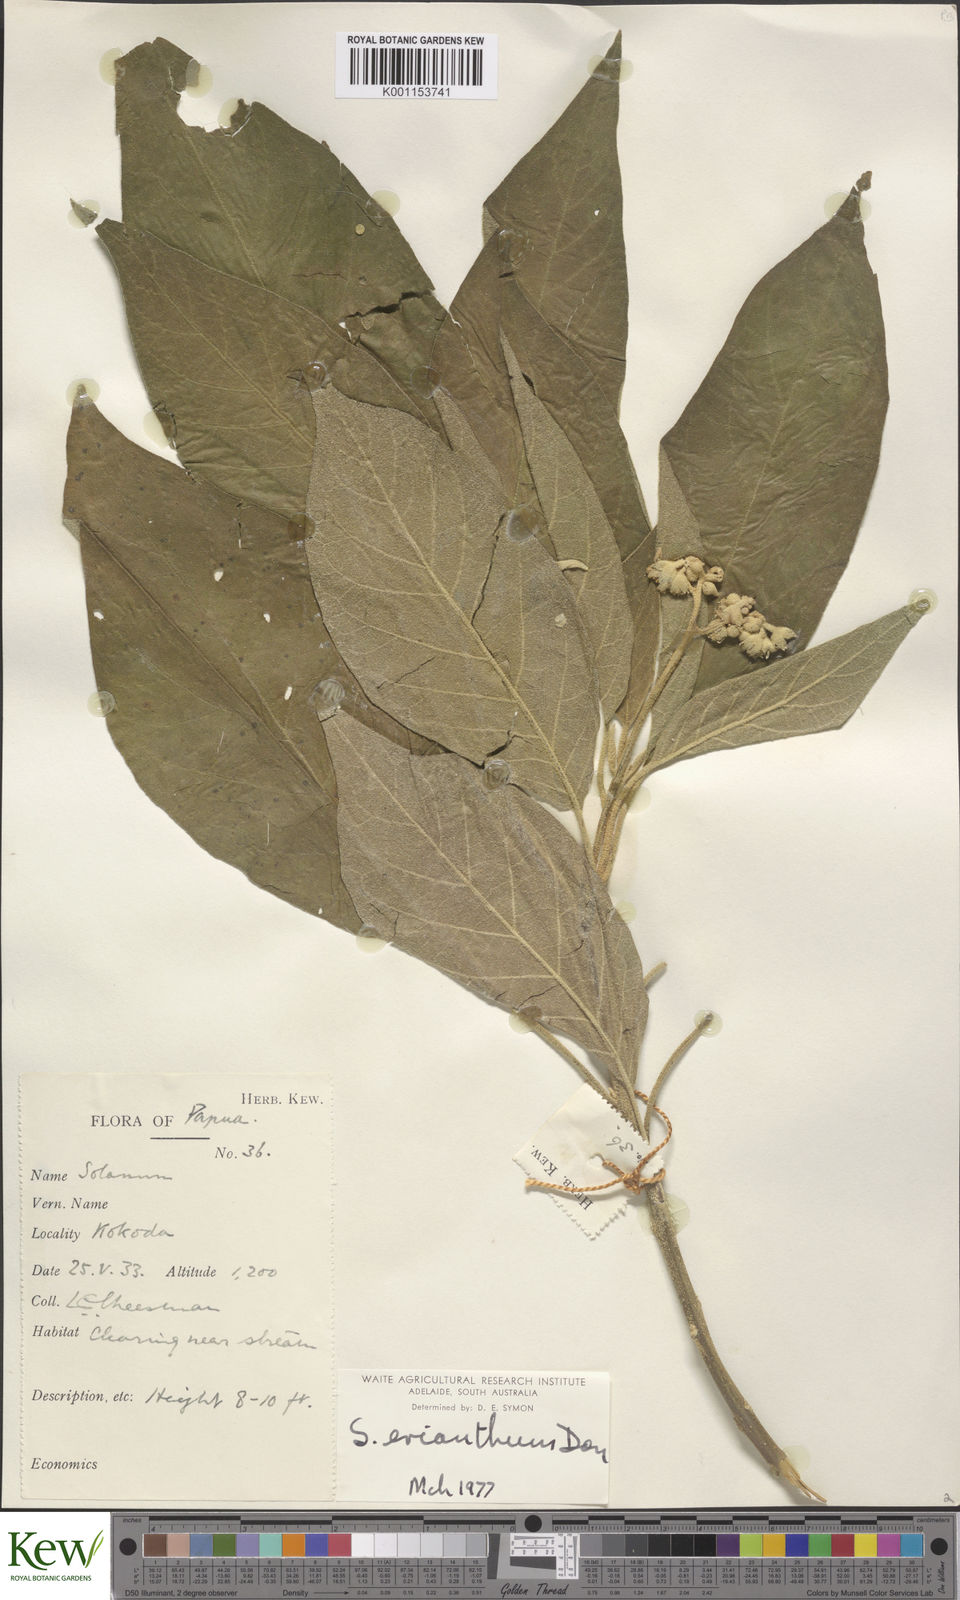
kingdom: Plantae
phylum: Tracheophyta
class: Magnoliopsida
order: Solanales
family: Solanaceae
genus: Solanum
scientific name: Solanum erianthum
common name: Tobacco-tree
